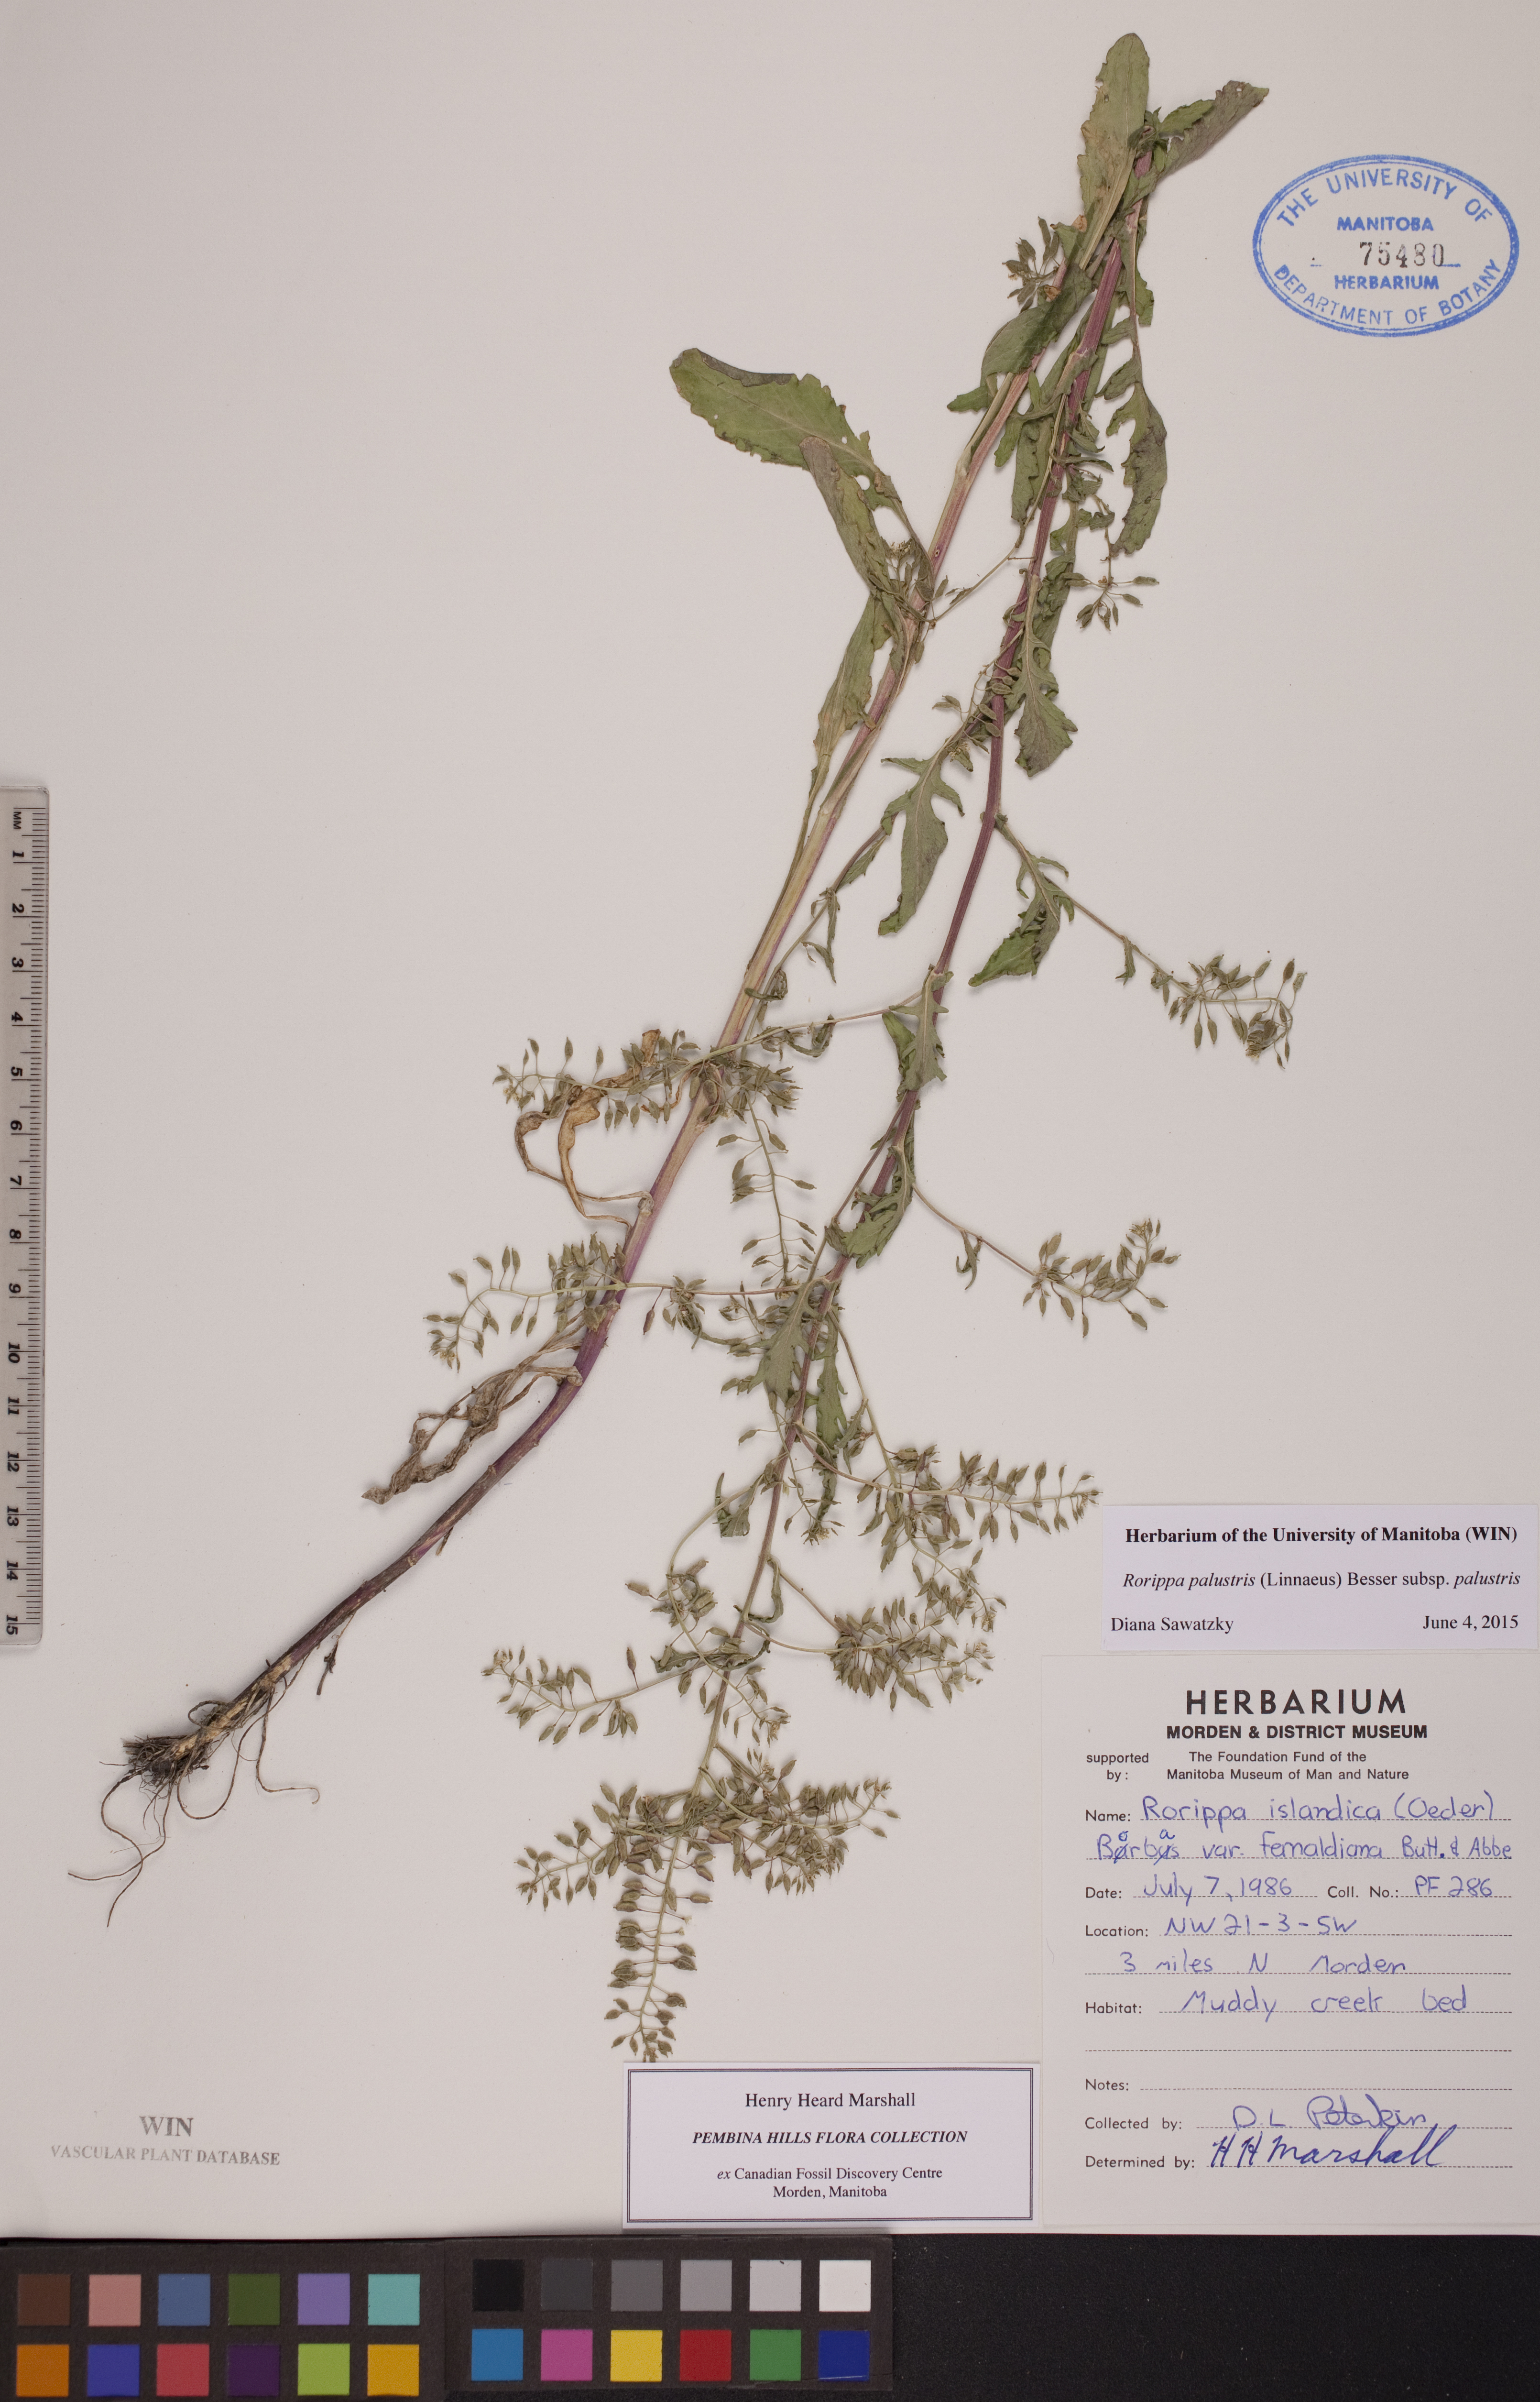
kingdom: Plantae
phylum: Tracheophyta
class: Magnoliopsida
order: Brassicales
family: Brassicaceae
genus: Rorippa
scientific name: Rorippa palustris
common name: Marsh yellow-cress
